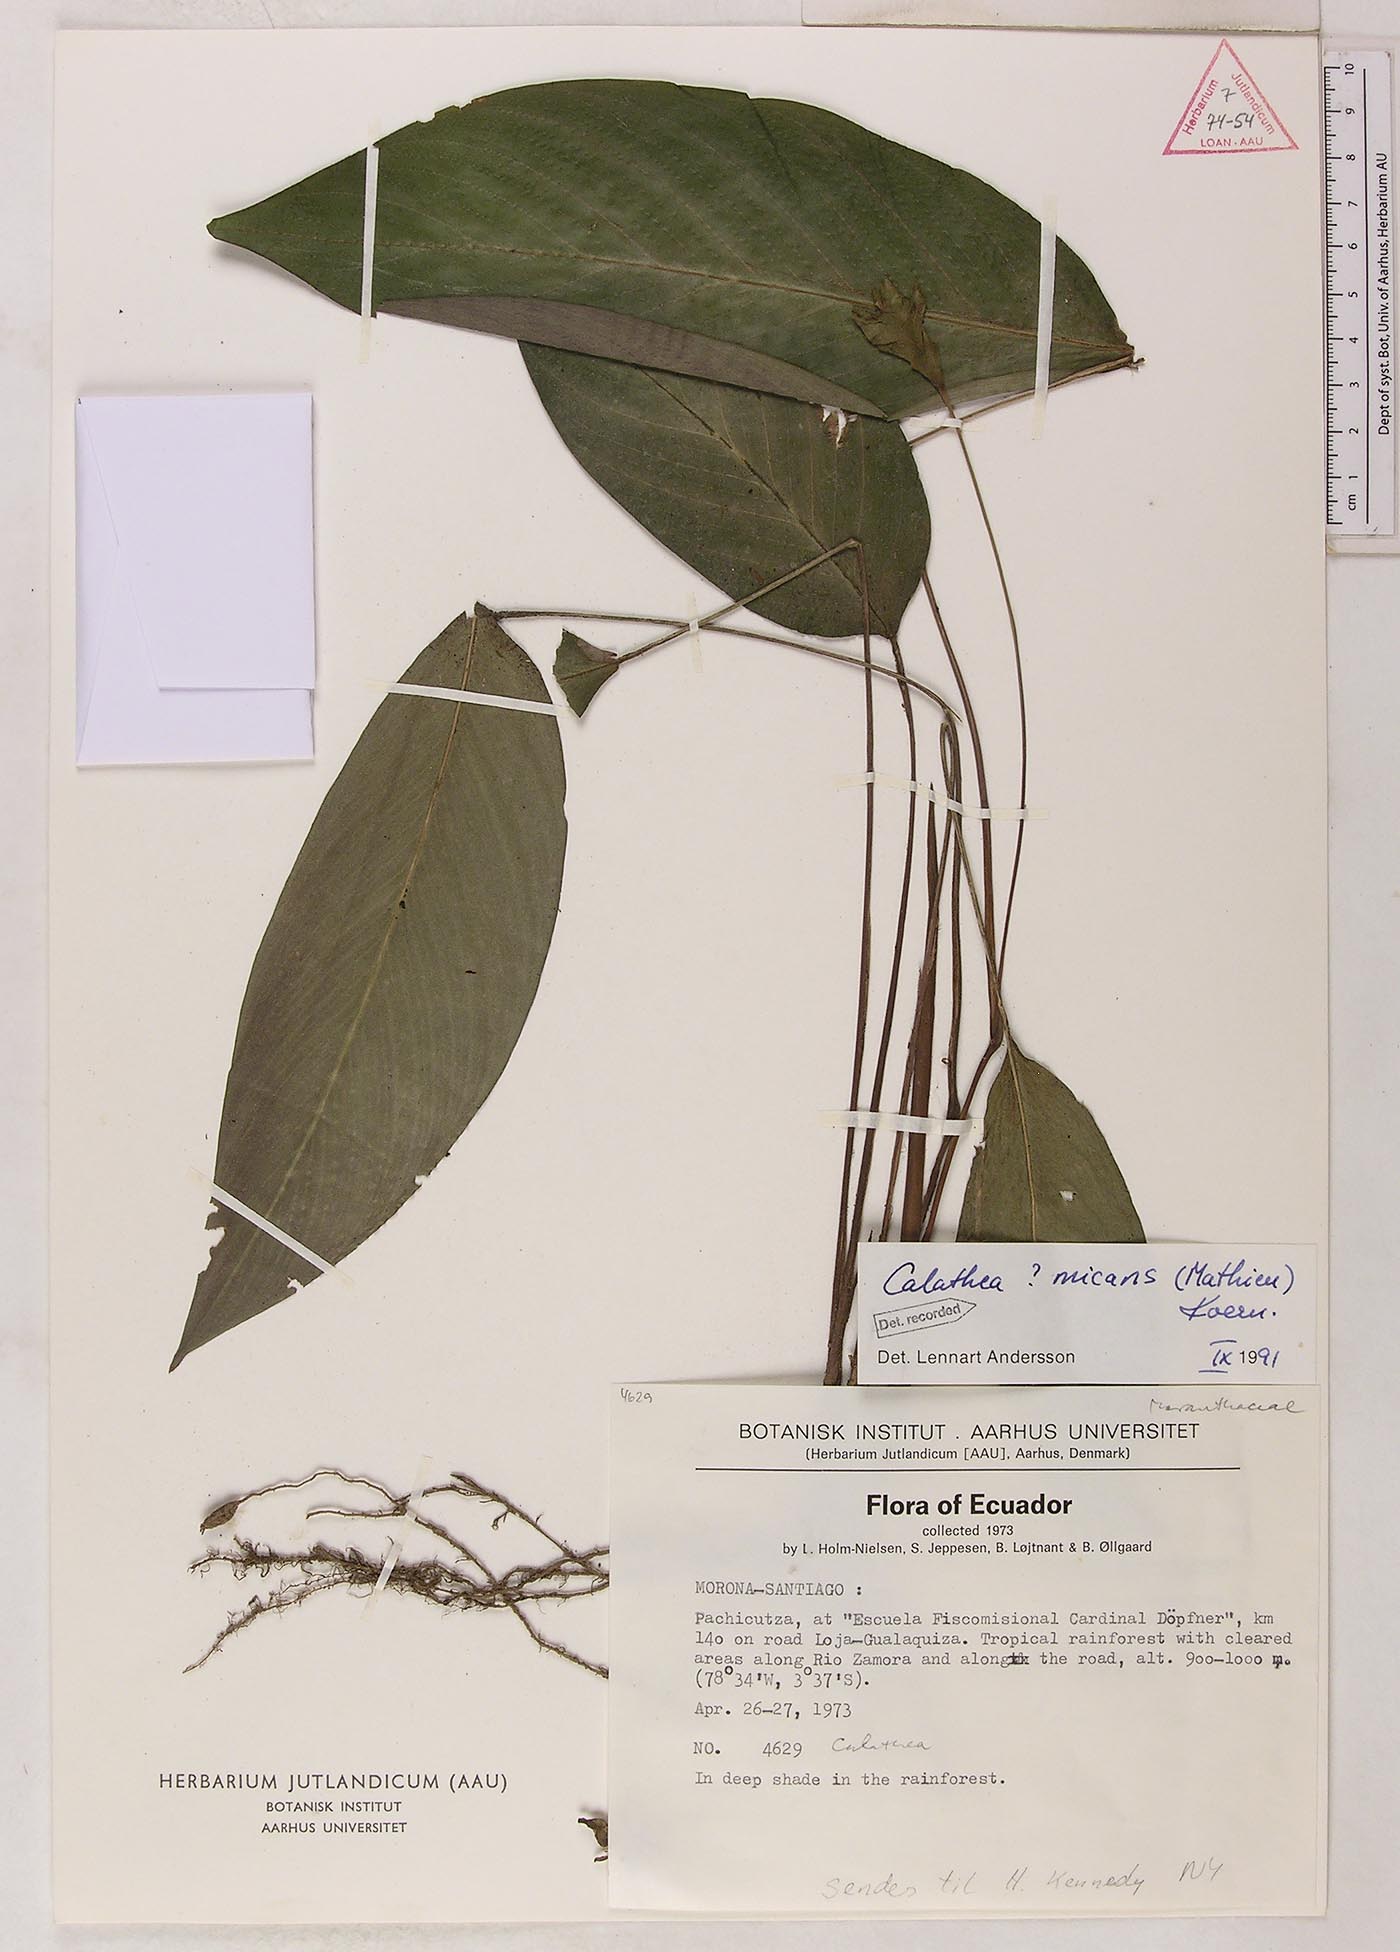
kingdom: Plantae
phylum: Tracheophyta
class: Liliopsida
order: Zingiberales
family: Marantaceae
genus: Goeppertia
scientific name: Goeppertia micans
